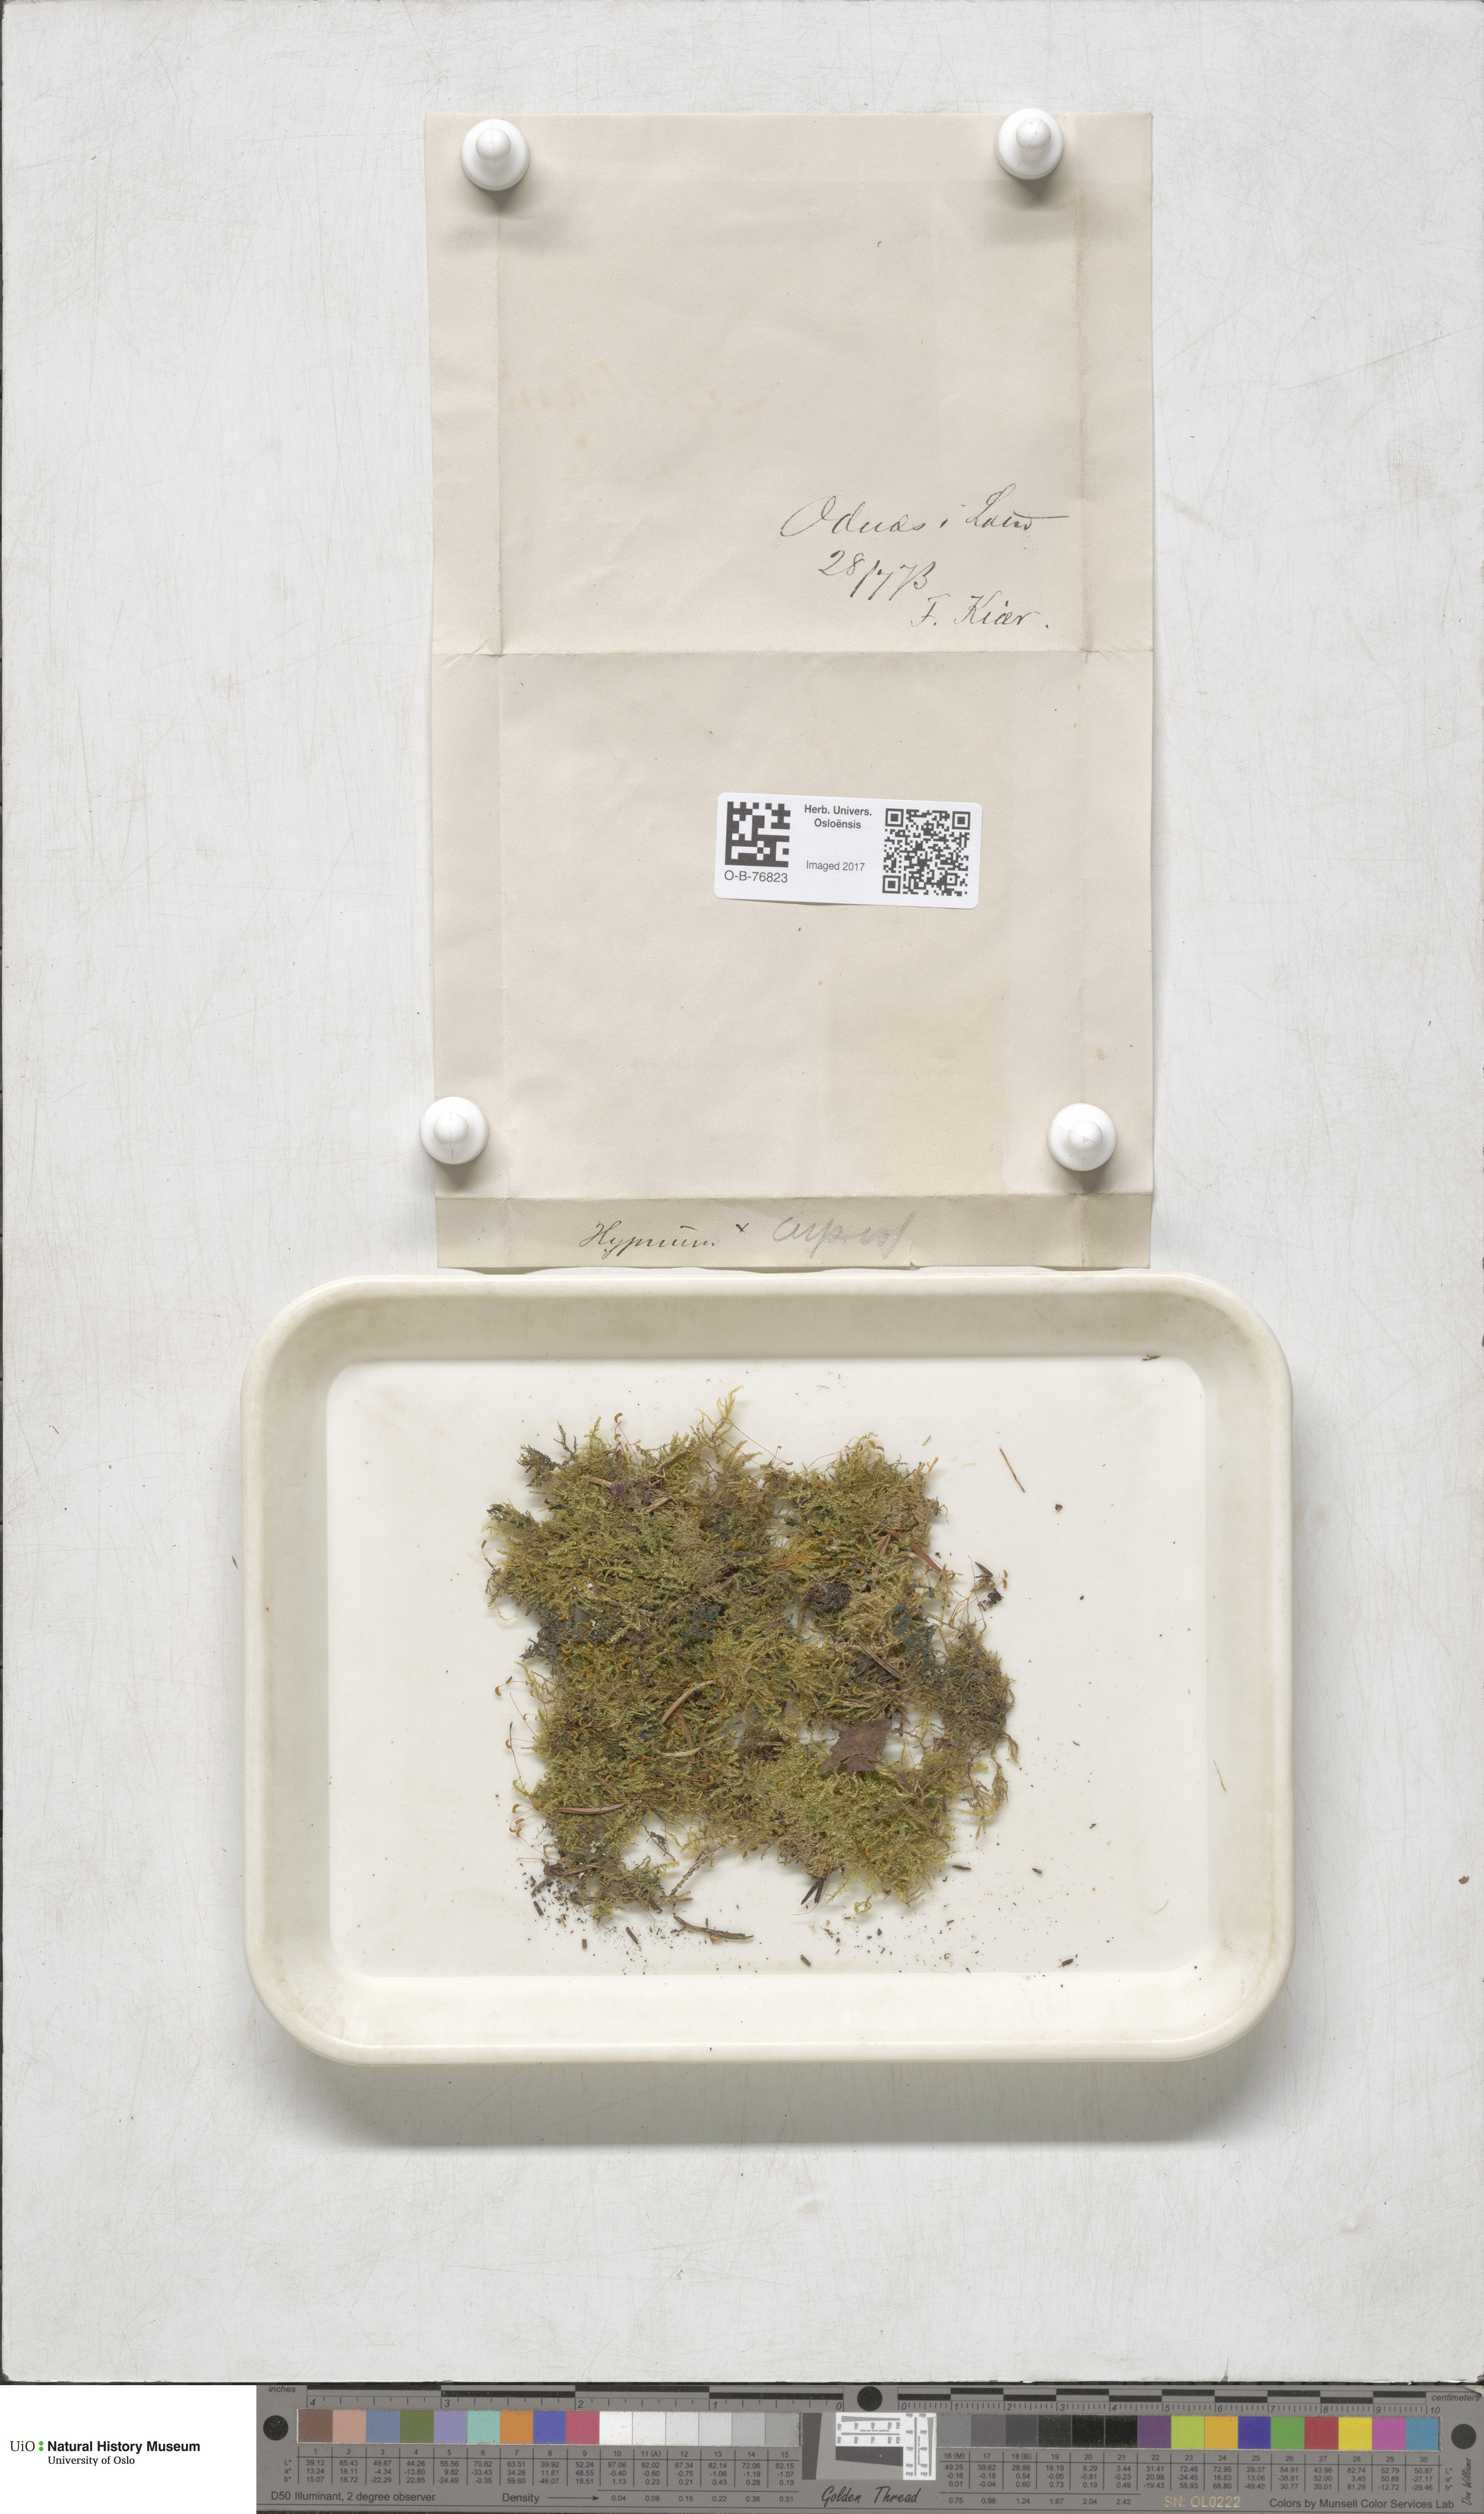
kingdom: Plantae
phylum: Bryophyta
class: Bryopsida
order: Hypnales
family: Hypnaceae
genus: Hypnum
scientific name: Hypnum cupressiforme
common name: Cypress-leaved plait-moss
